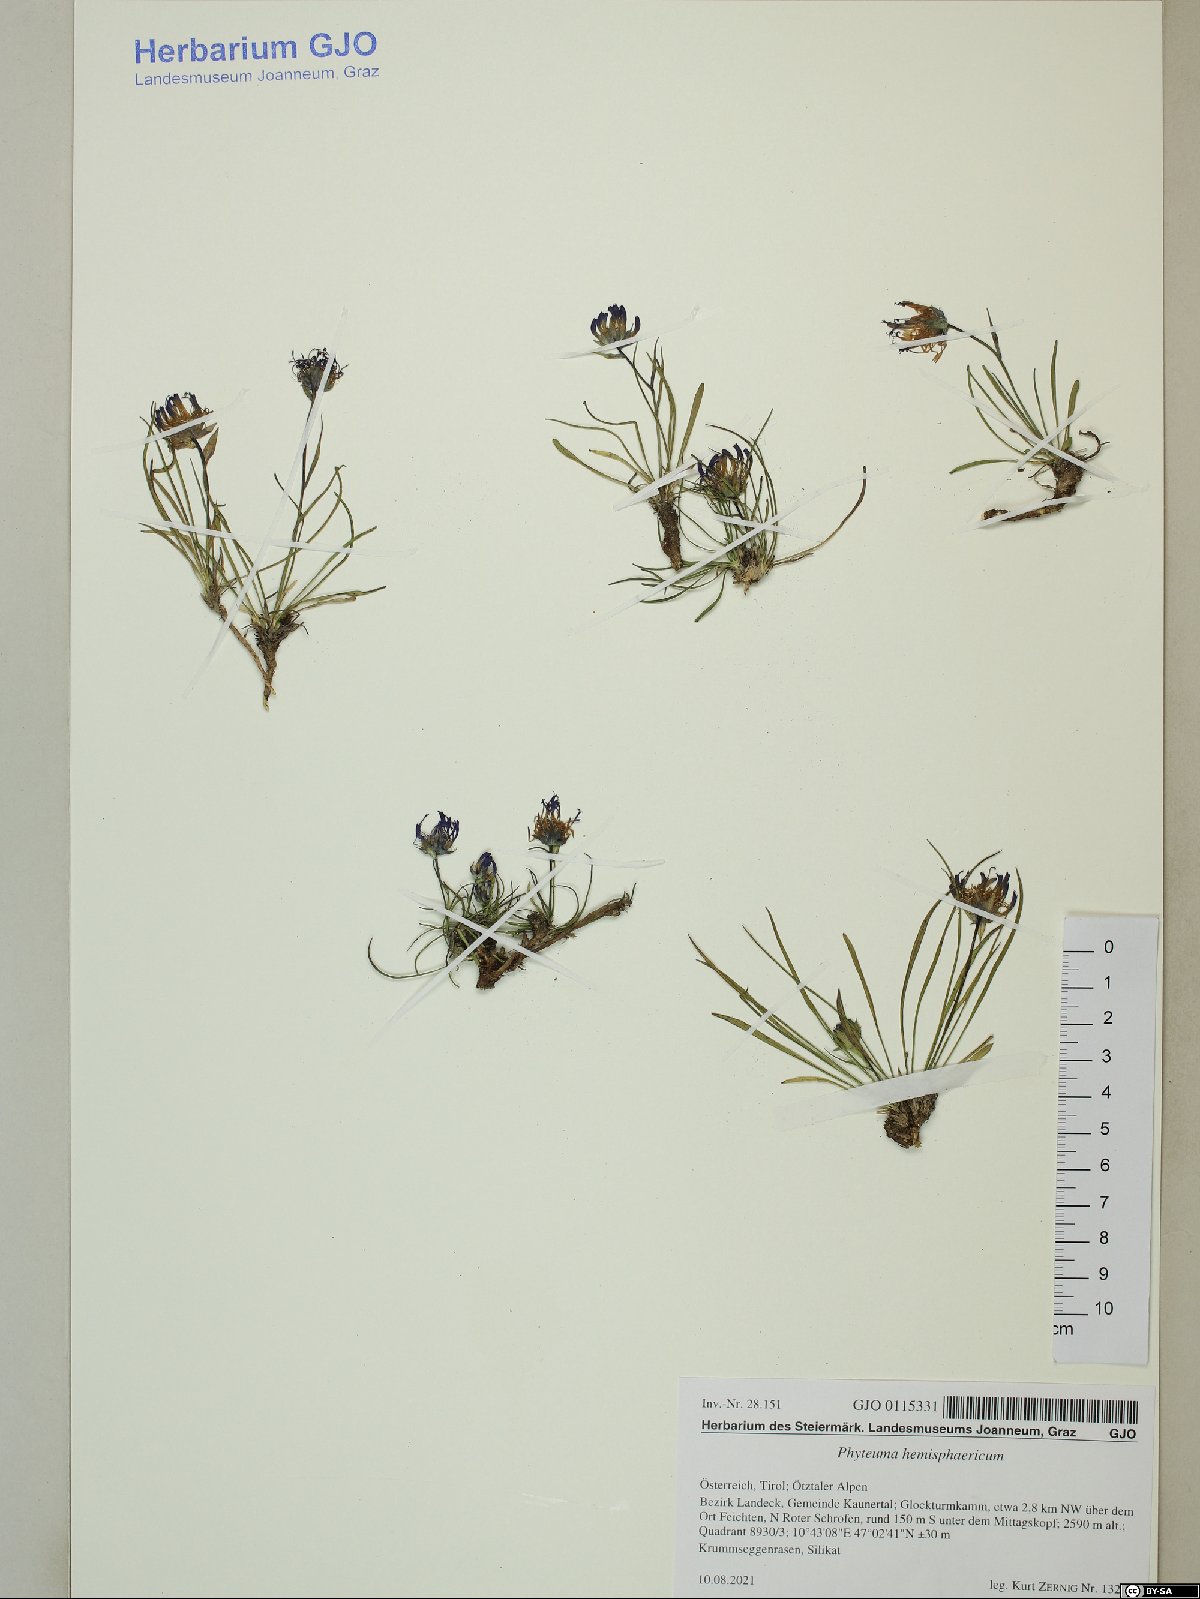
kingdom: Plantae
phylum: Tracheophyta
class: Magnoliopsida
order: Asterales
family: Campanulaceae
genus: Phyteuma
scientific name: Phyteuma hemisphaericum
